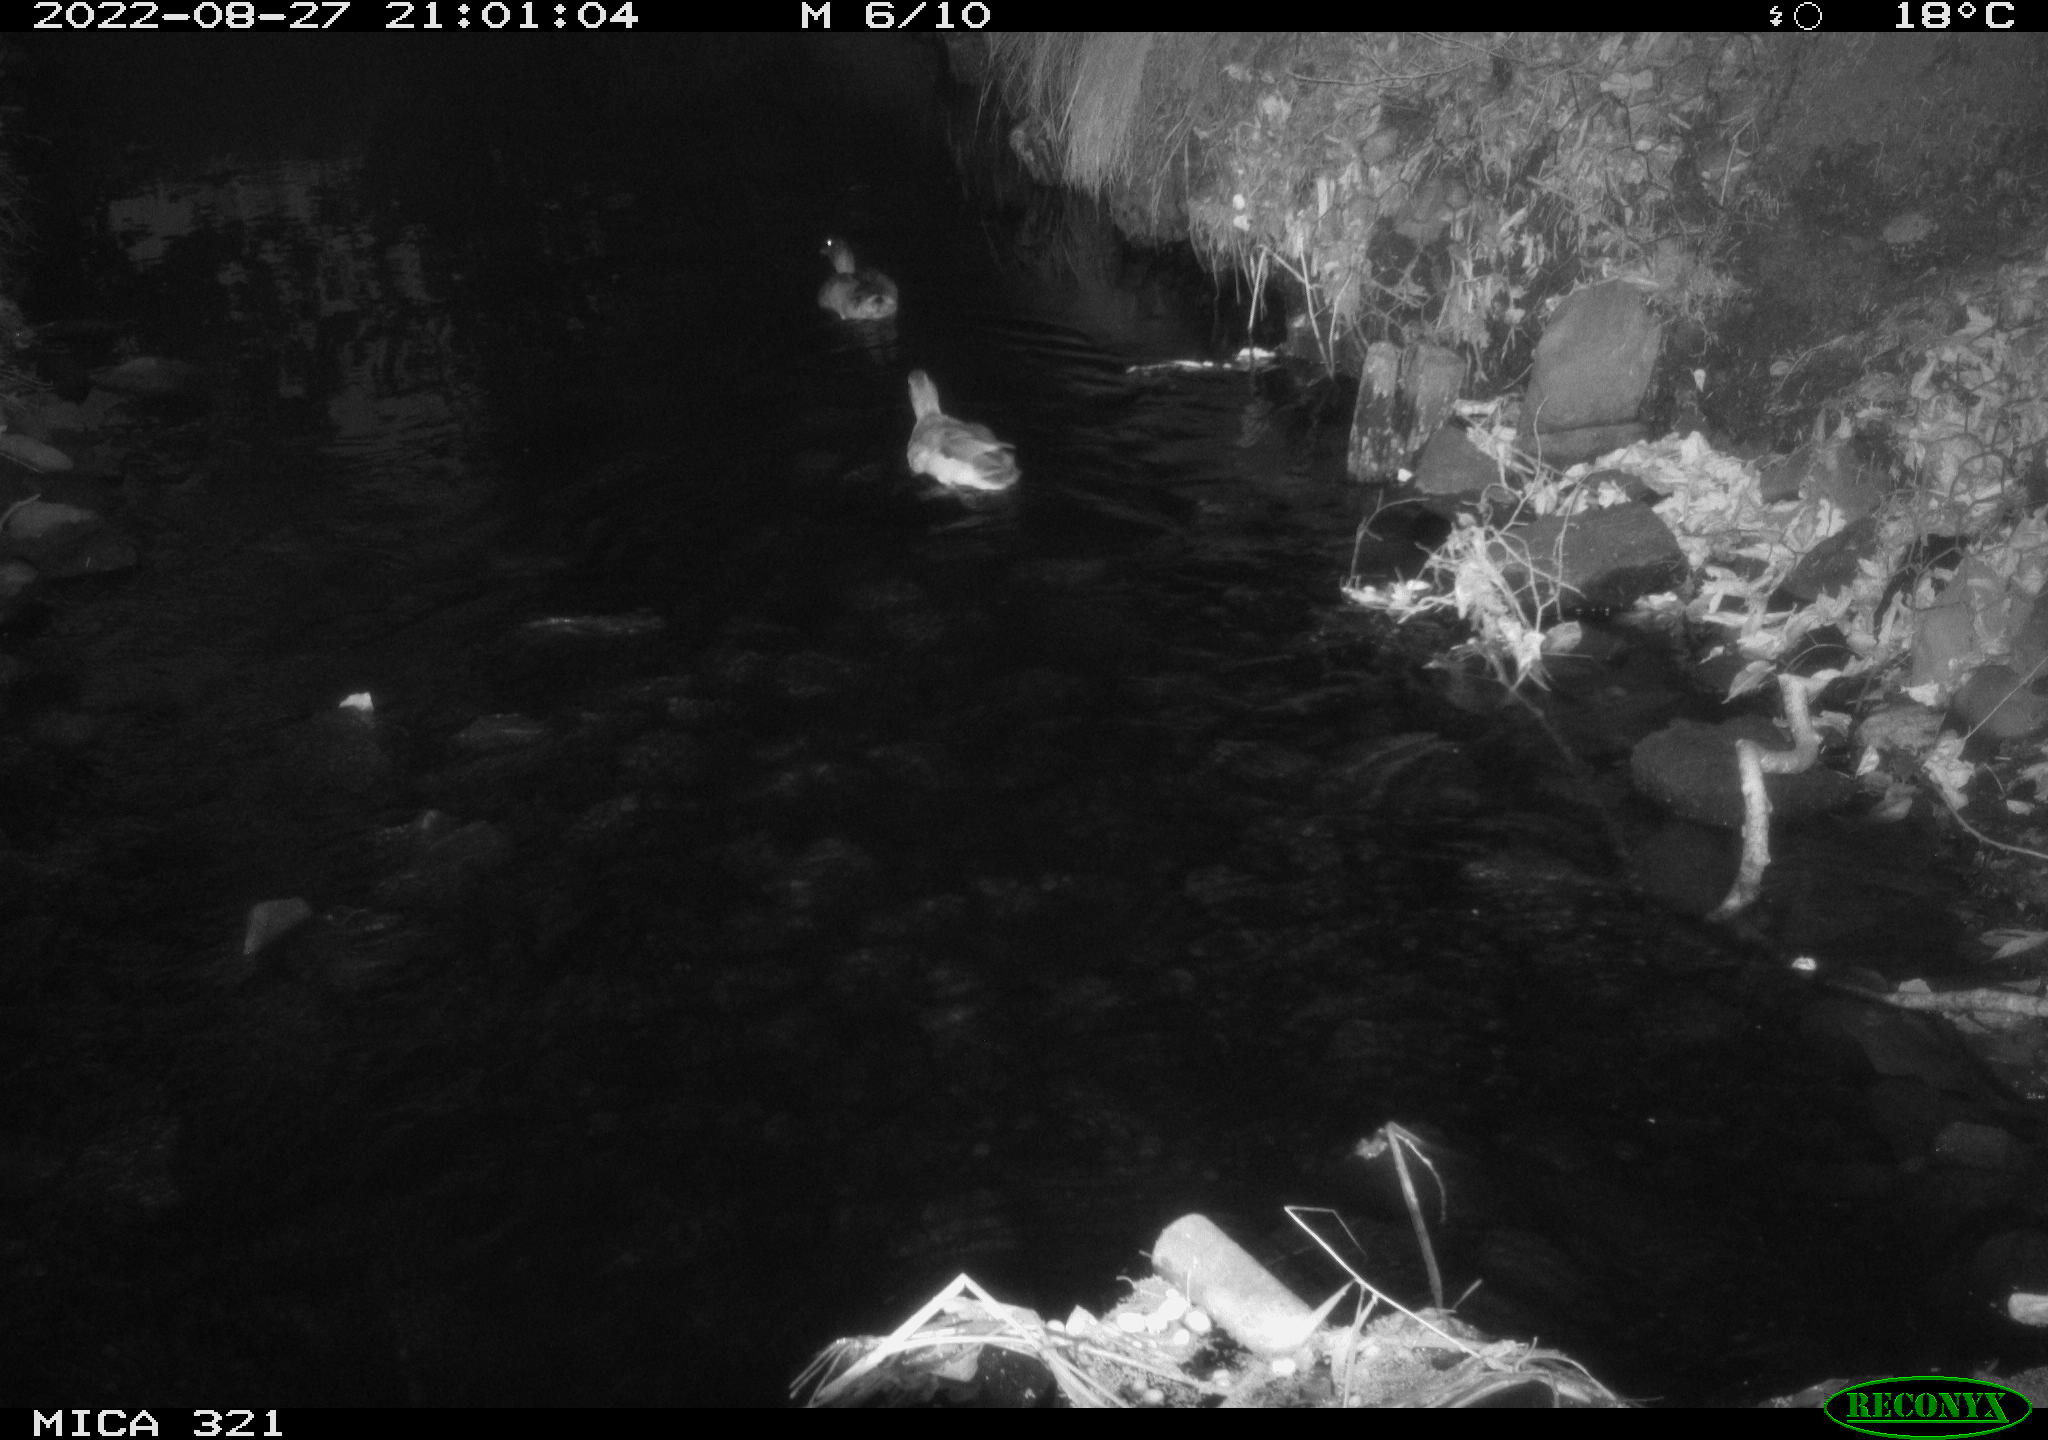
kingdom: Animalia
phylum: Chordata
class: Aves
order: Anseriformes
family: Anatidae
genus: Anas
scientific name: Anas platyrhynchos
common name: Mallard
